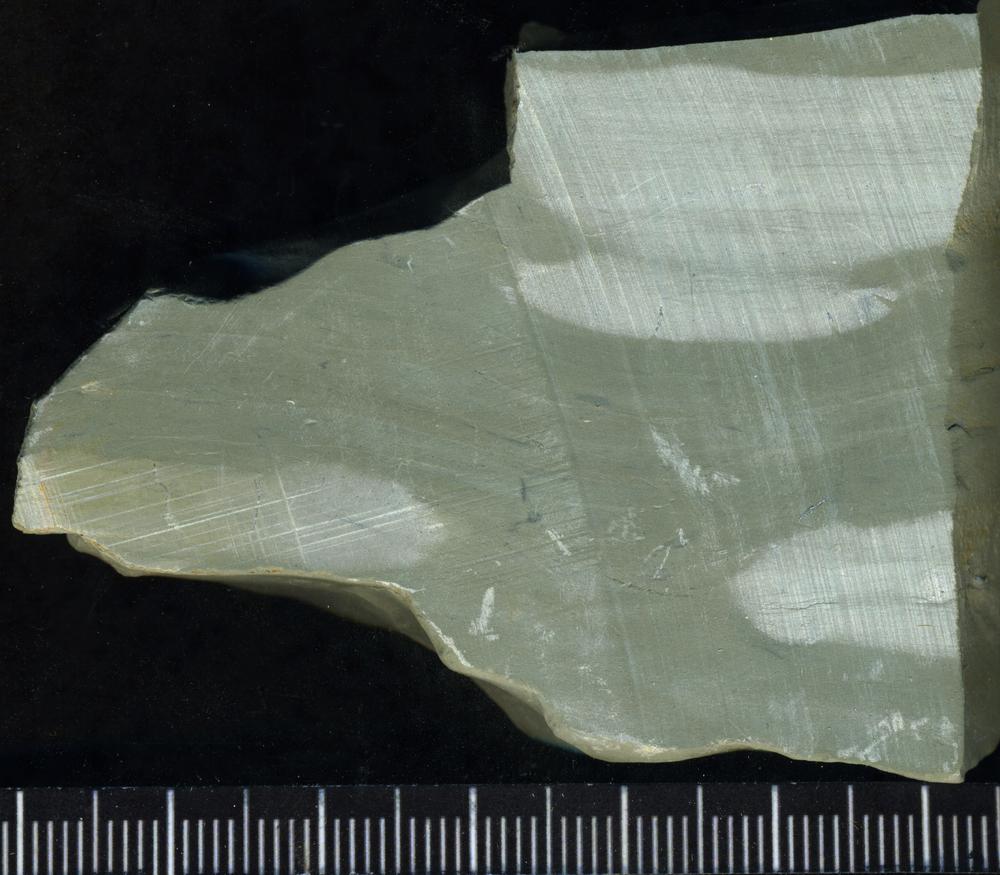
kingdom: Plantae
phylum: Tracheophyta
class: Pinopsida
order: Pinales
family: Cupressaceae
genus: Platycladus
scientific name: Platycladus
